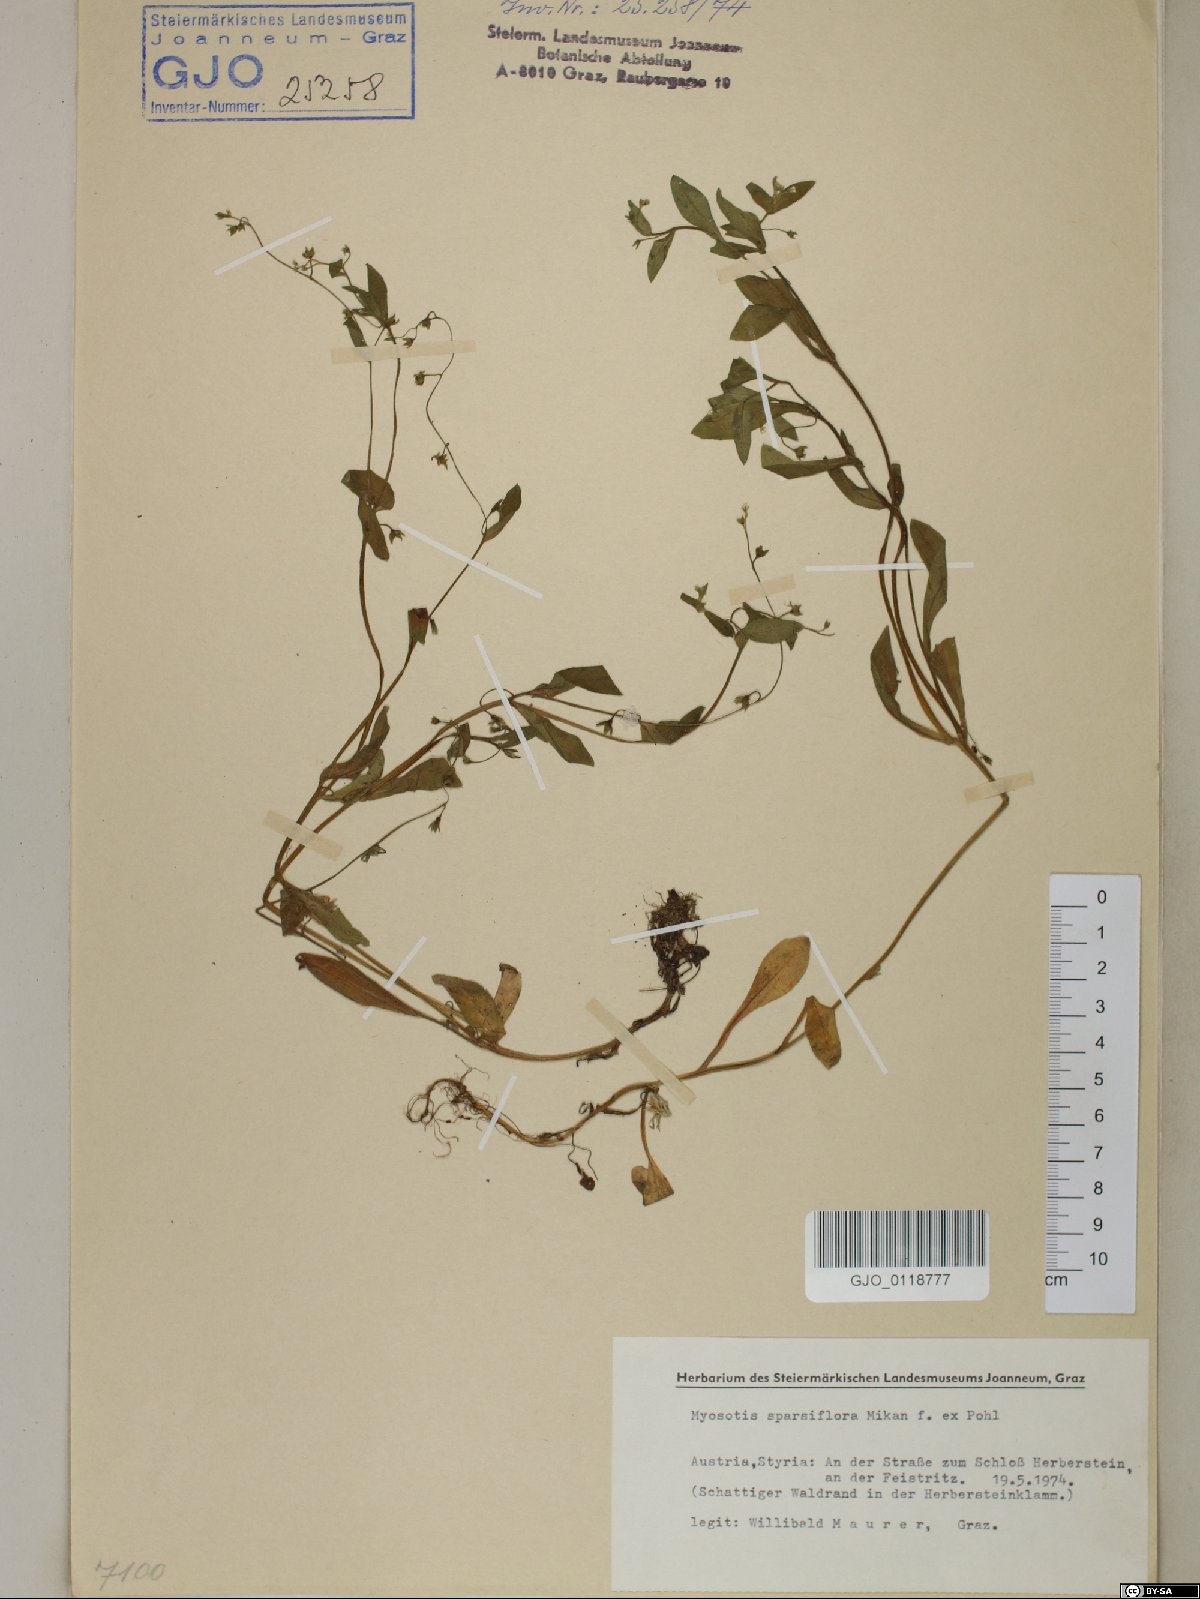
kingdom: Plantae
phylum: Tracheophyta
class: Magnoliopsida
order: Boraginales
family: Boraginaceae
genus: Myosotis
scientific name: Myosotis sparsiflora
